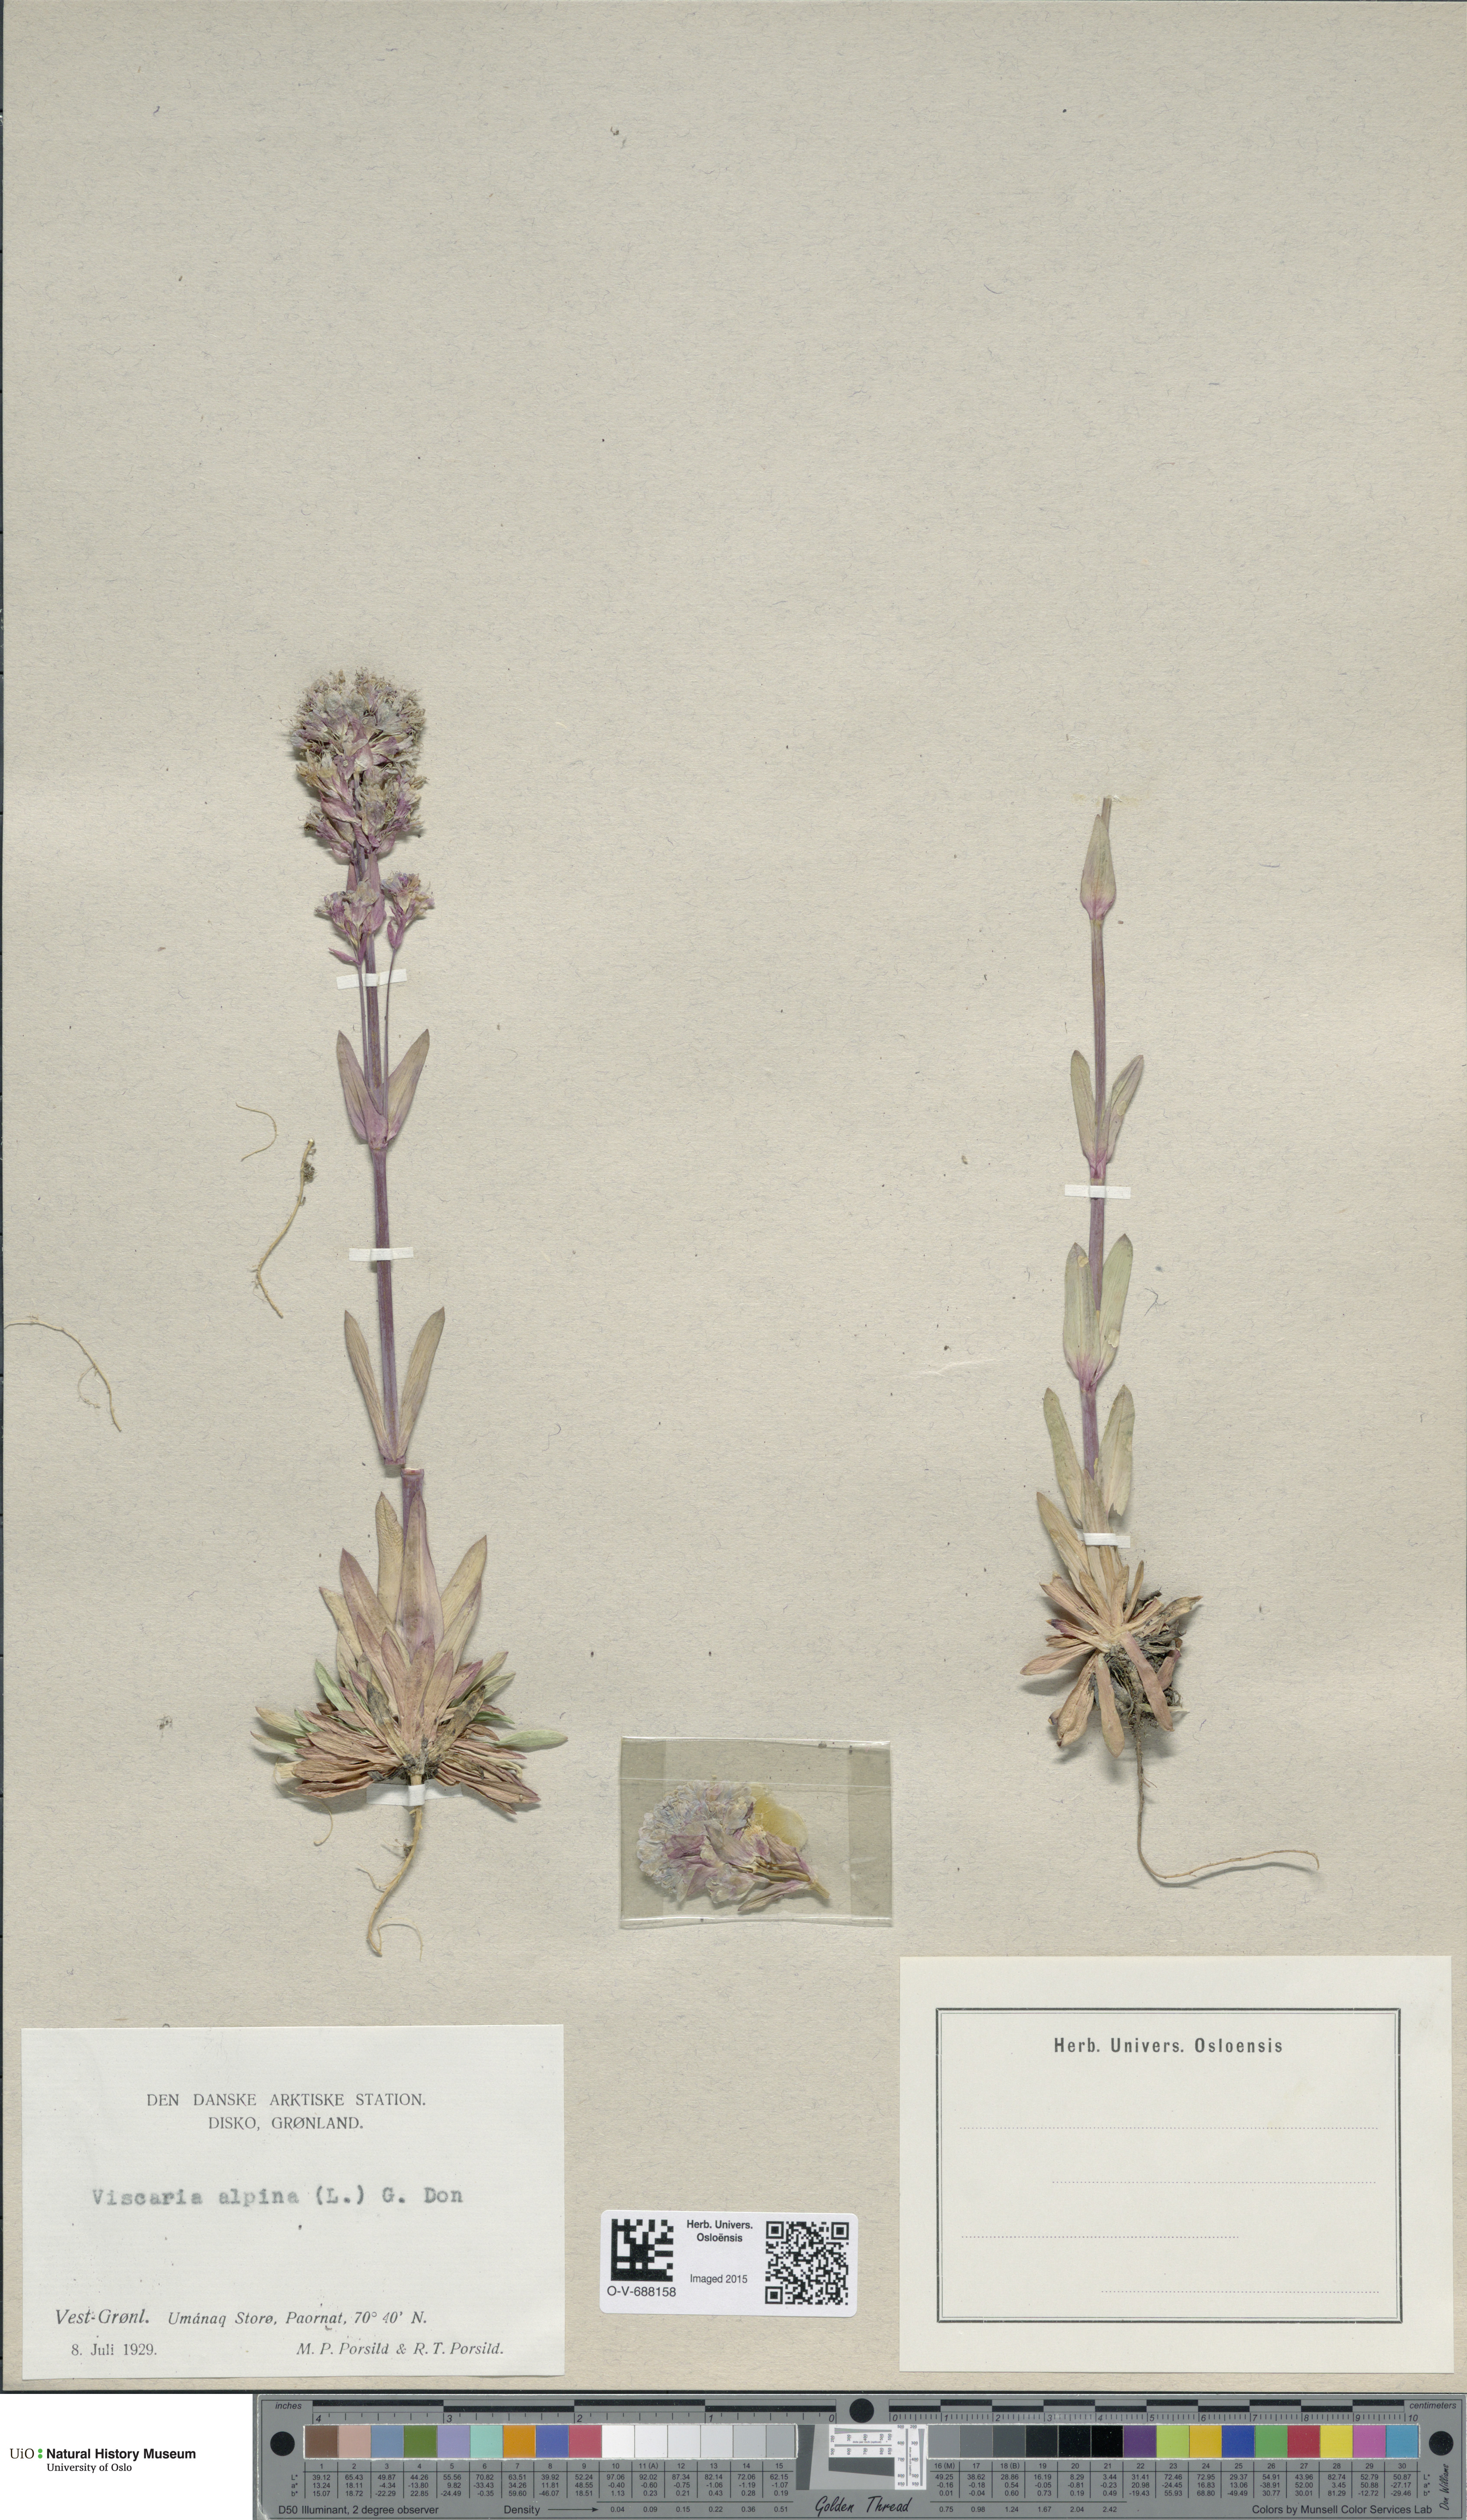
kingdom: Plantae
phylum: Tracheophyta
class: Magnoliopsida
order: Caryophyllales
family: Caryophyllaceae
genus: Viscaria
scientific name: Viscaria alpina
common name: Alpine campion
